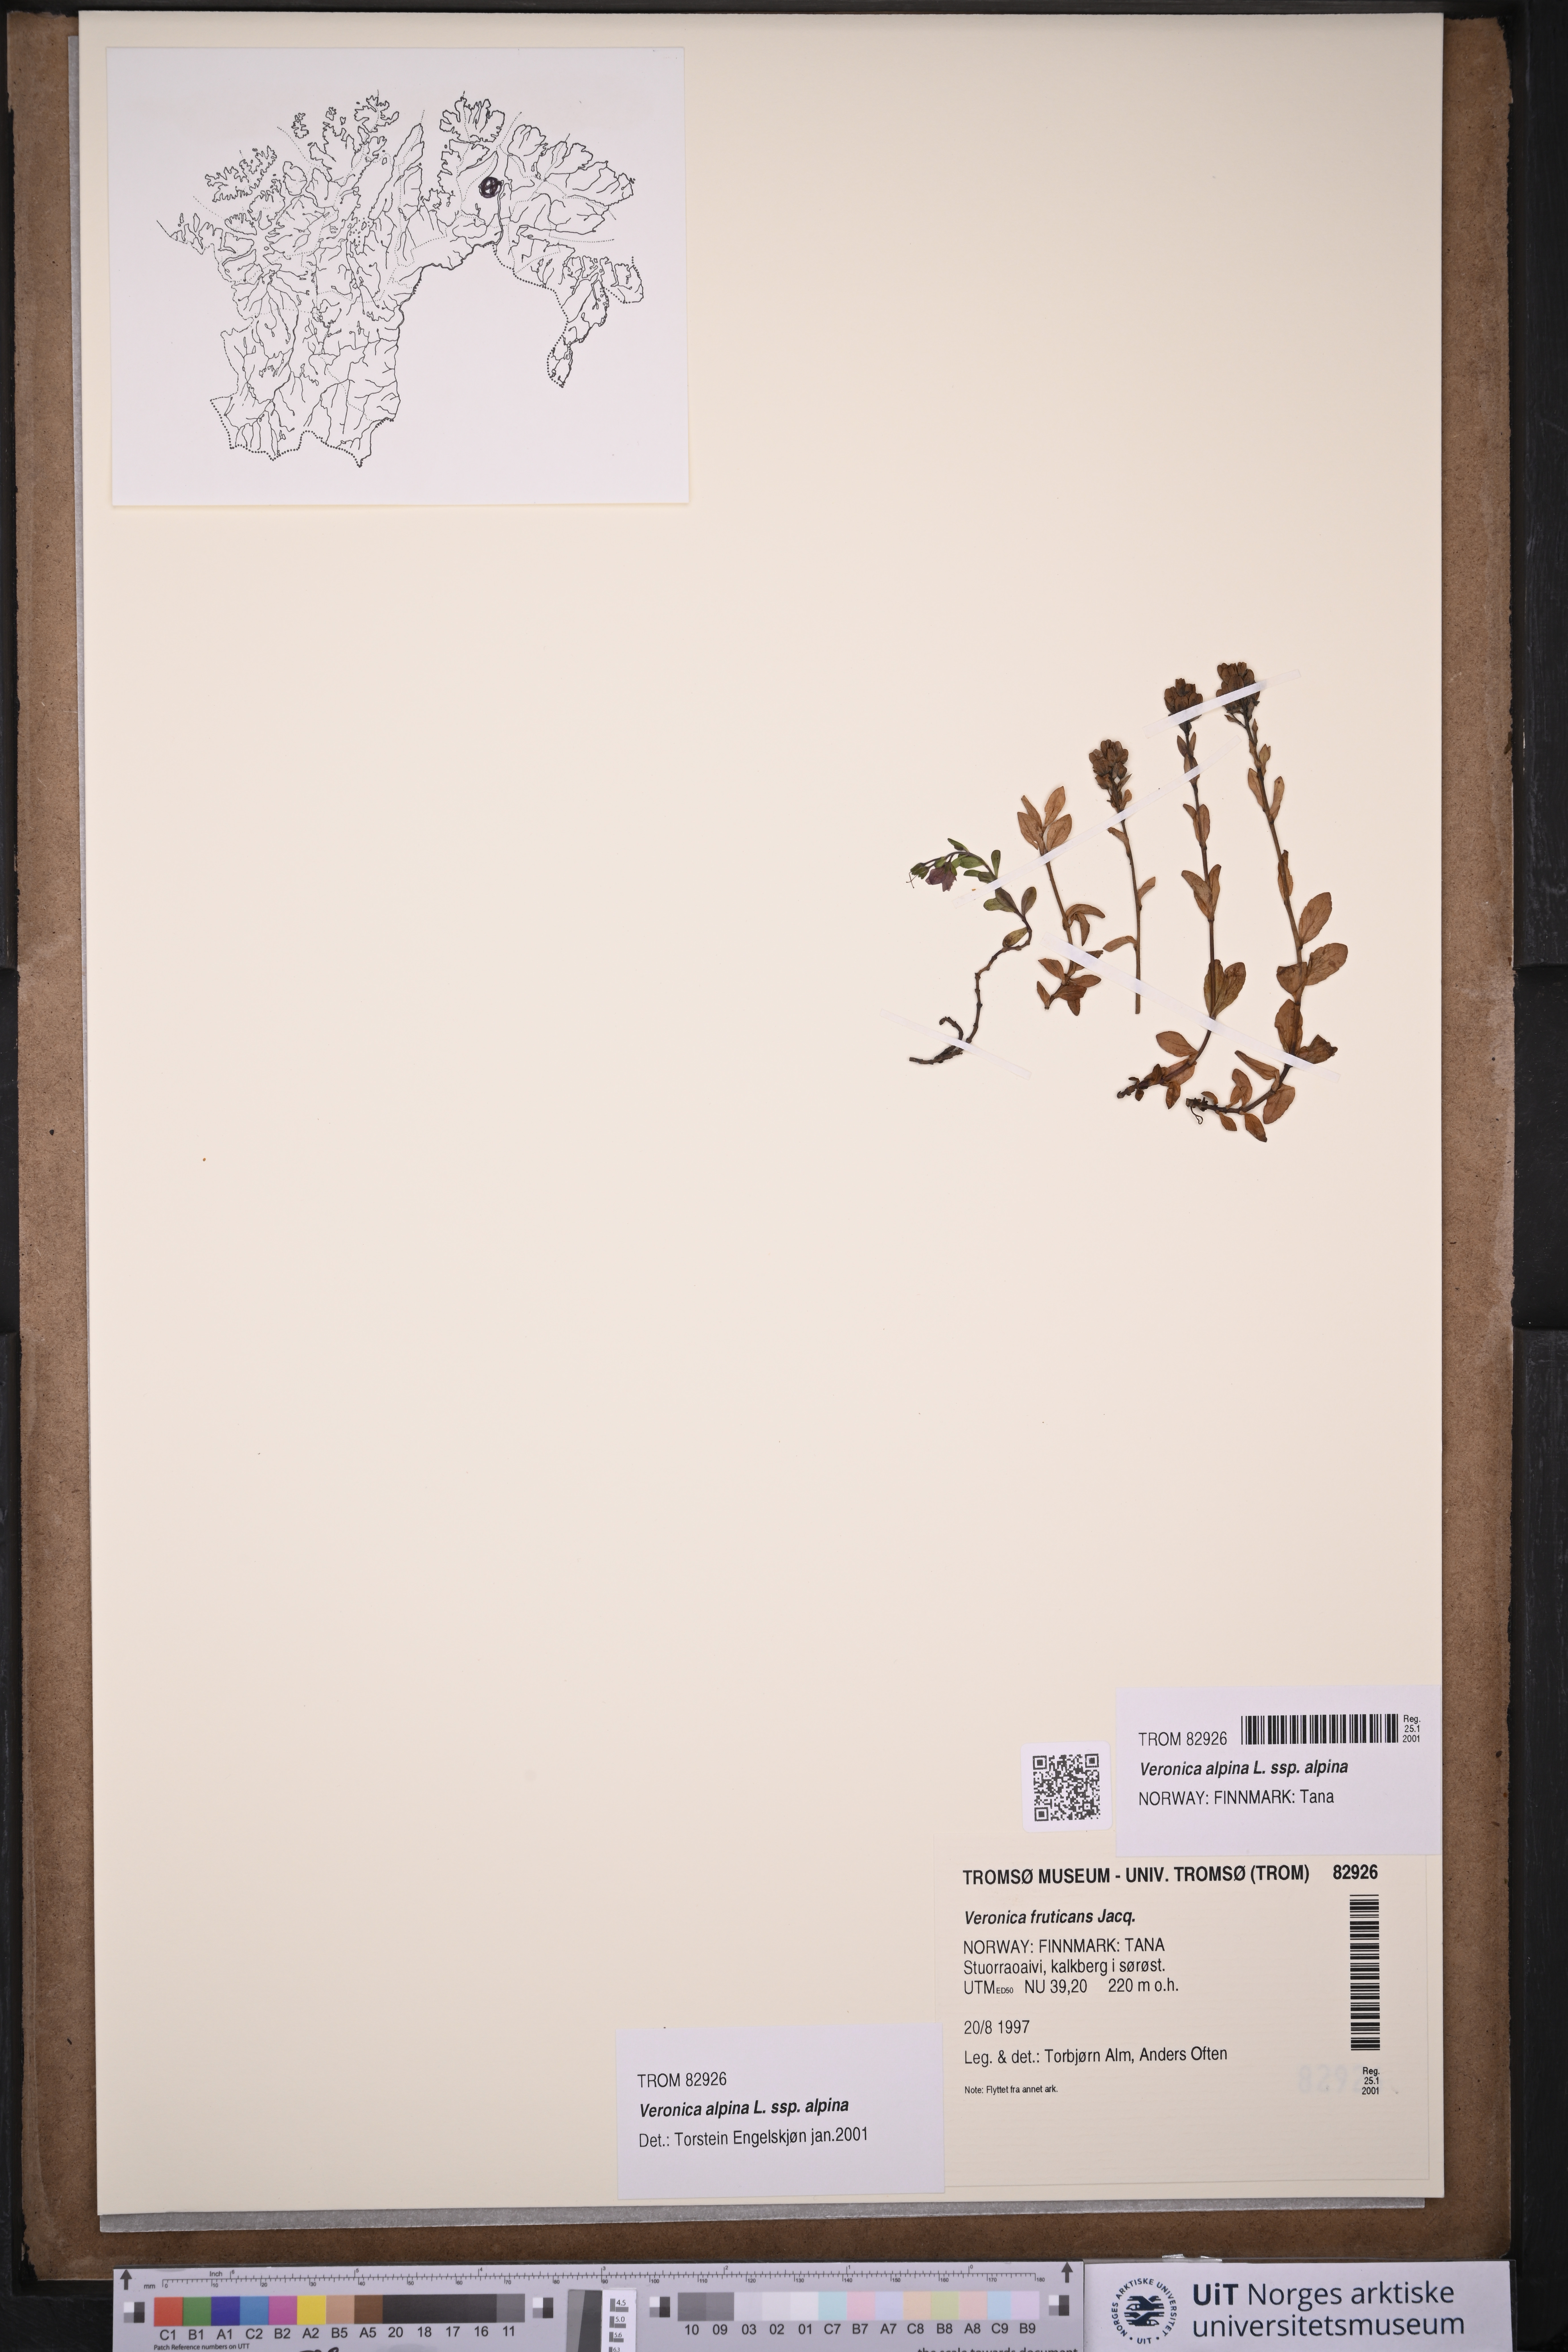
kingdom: Plantae
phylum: Tracheophyta
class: Magnoliopsida
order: Lamiales
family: Plantaginaceae
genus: Veronica
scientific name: Veronica alpina
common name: Alpine speedwell
